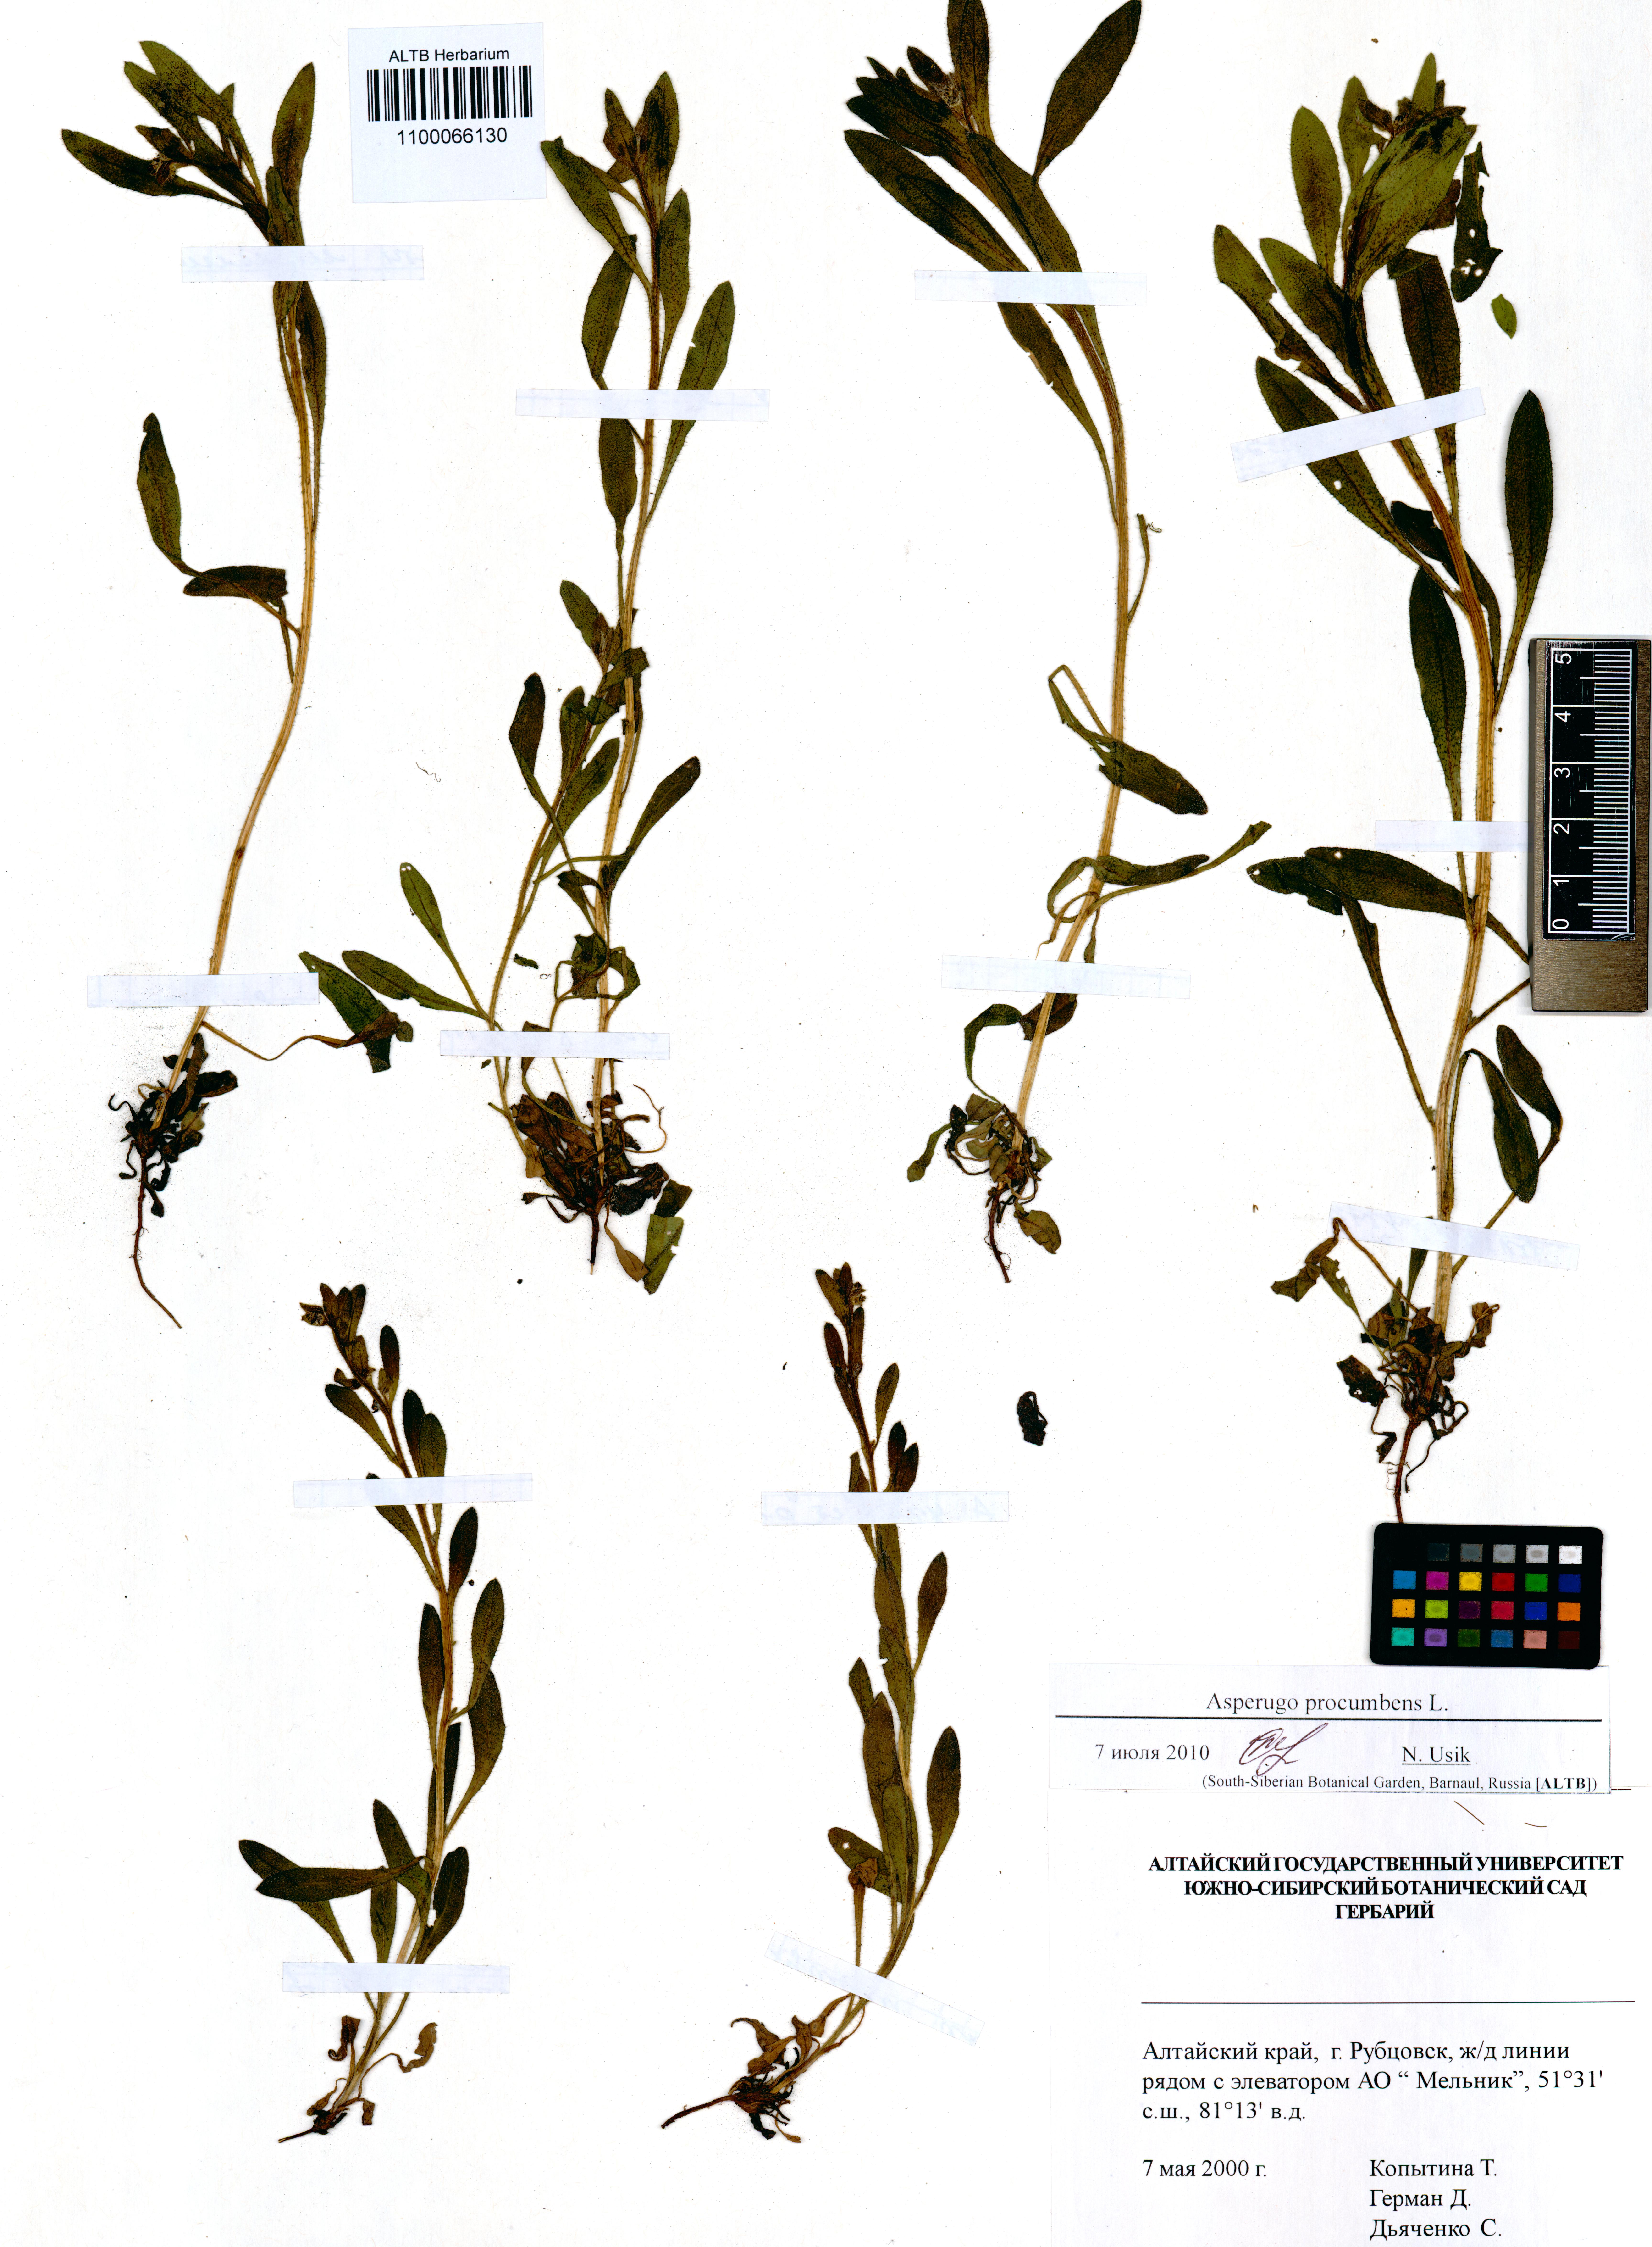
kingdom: Plantae
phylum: Tracheophyta
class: Magnoliopsida
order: Boraginales
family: Boraginaceae
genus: Asperugo
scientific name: Asperugo procumbens
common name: Madwort
